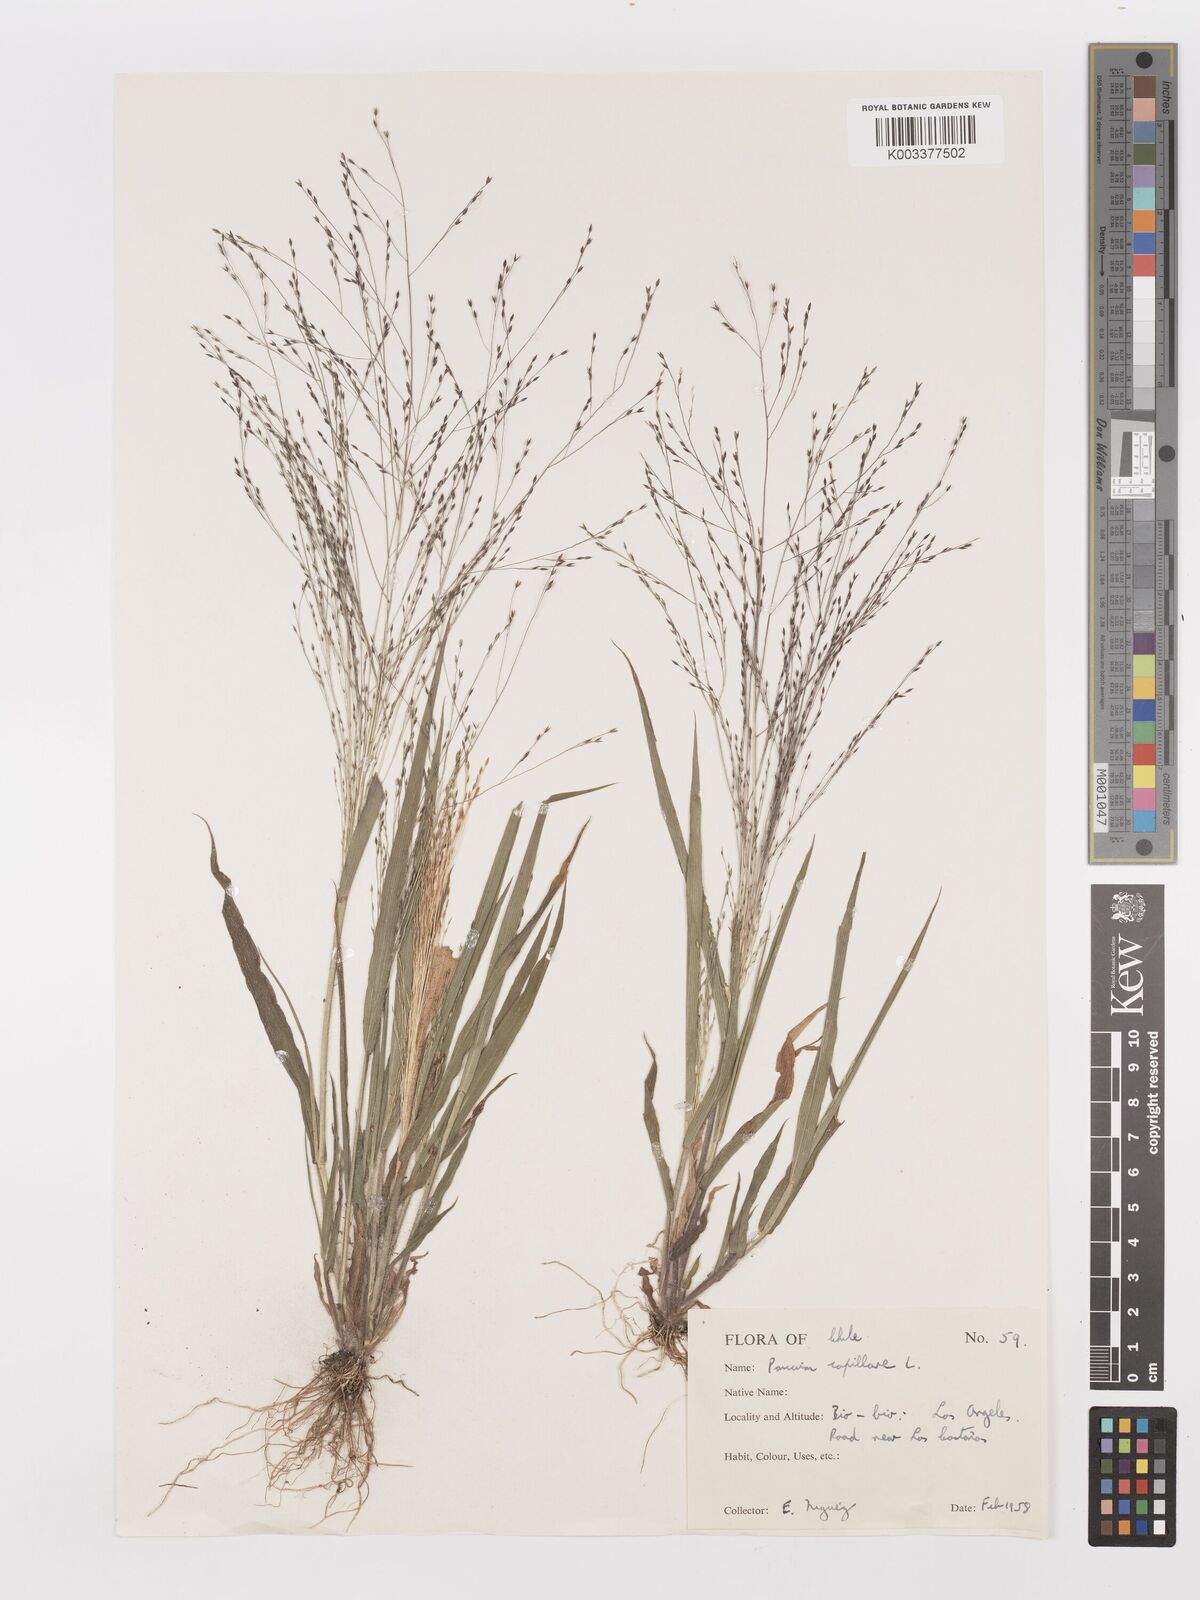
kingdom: Plantae
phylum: Tracheophyta
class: Liliopsida
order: Poales
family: Poaceae
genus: Panicum
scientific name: Panicum capillare
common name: Witch-grass
